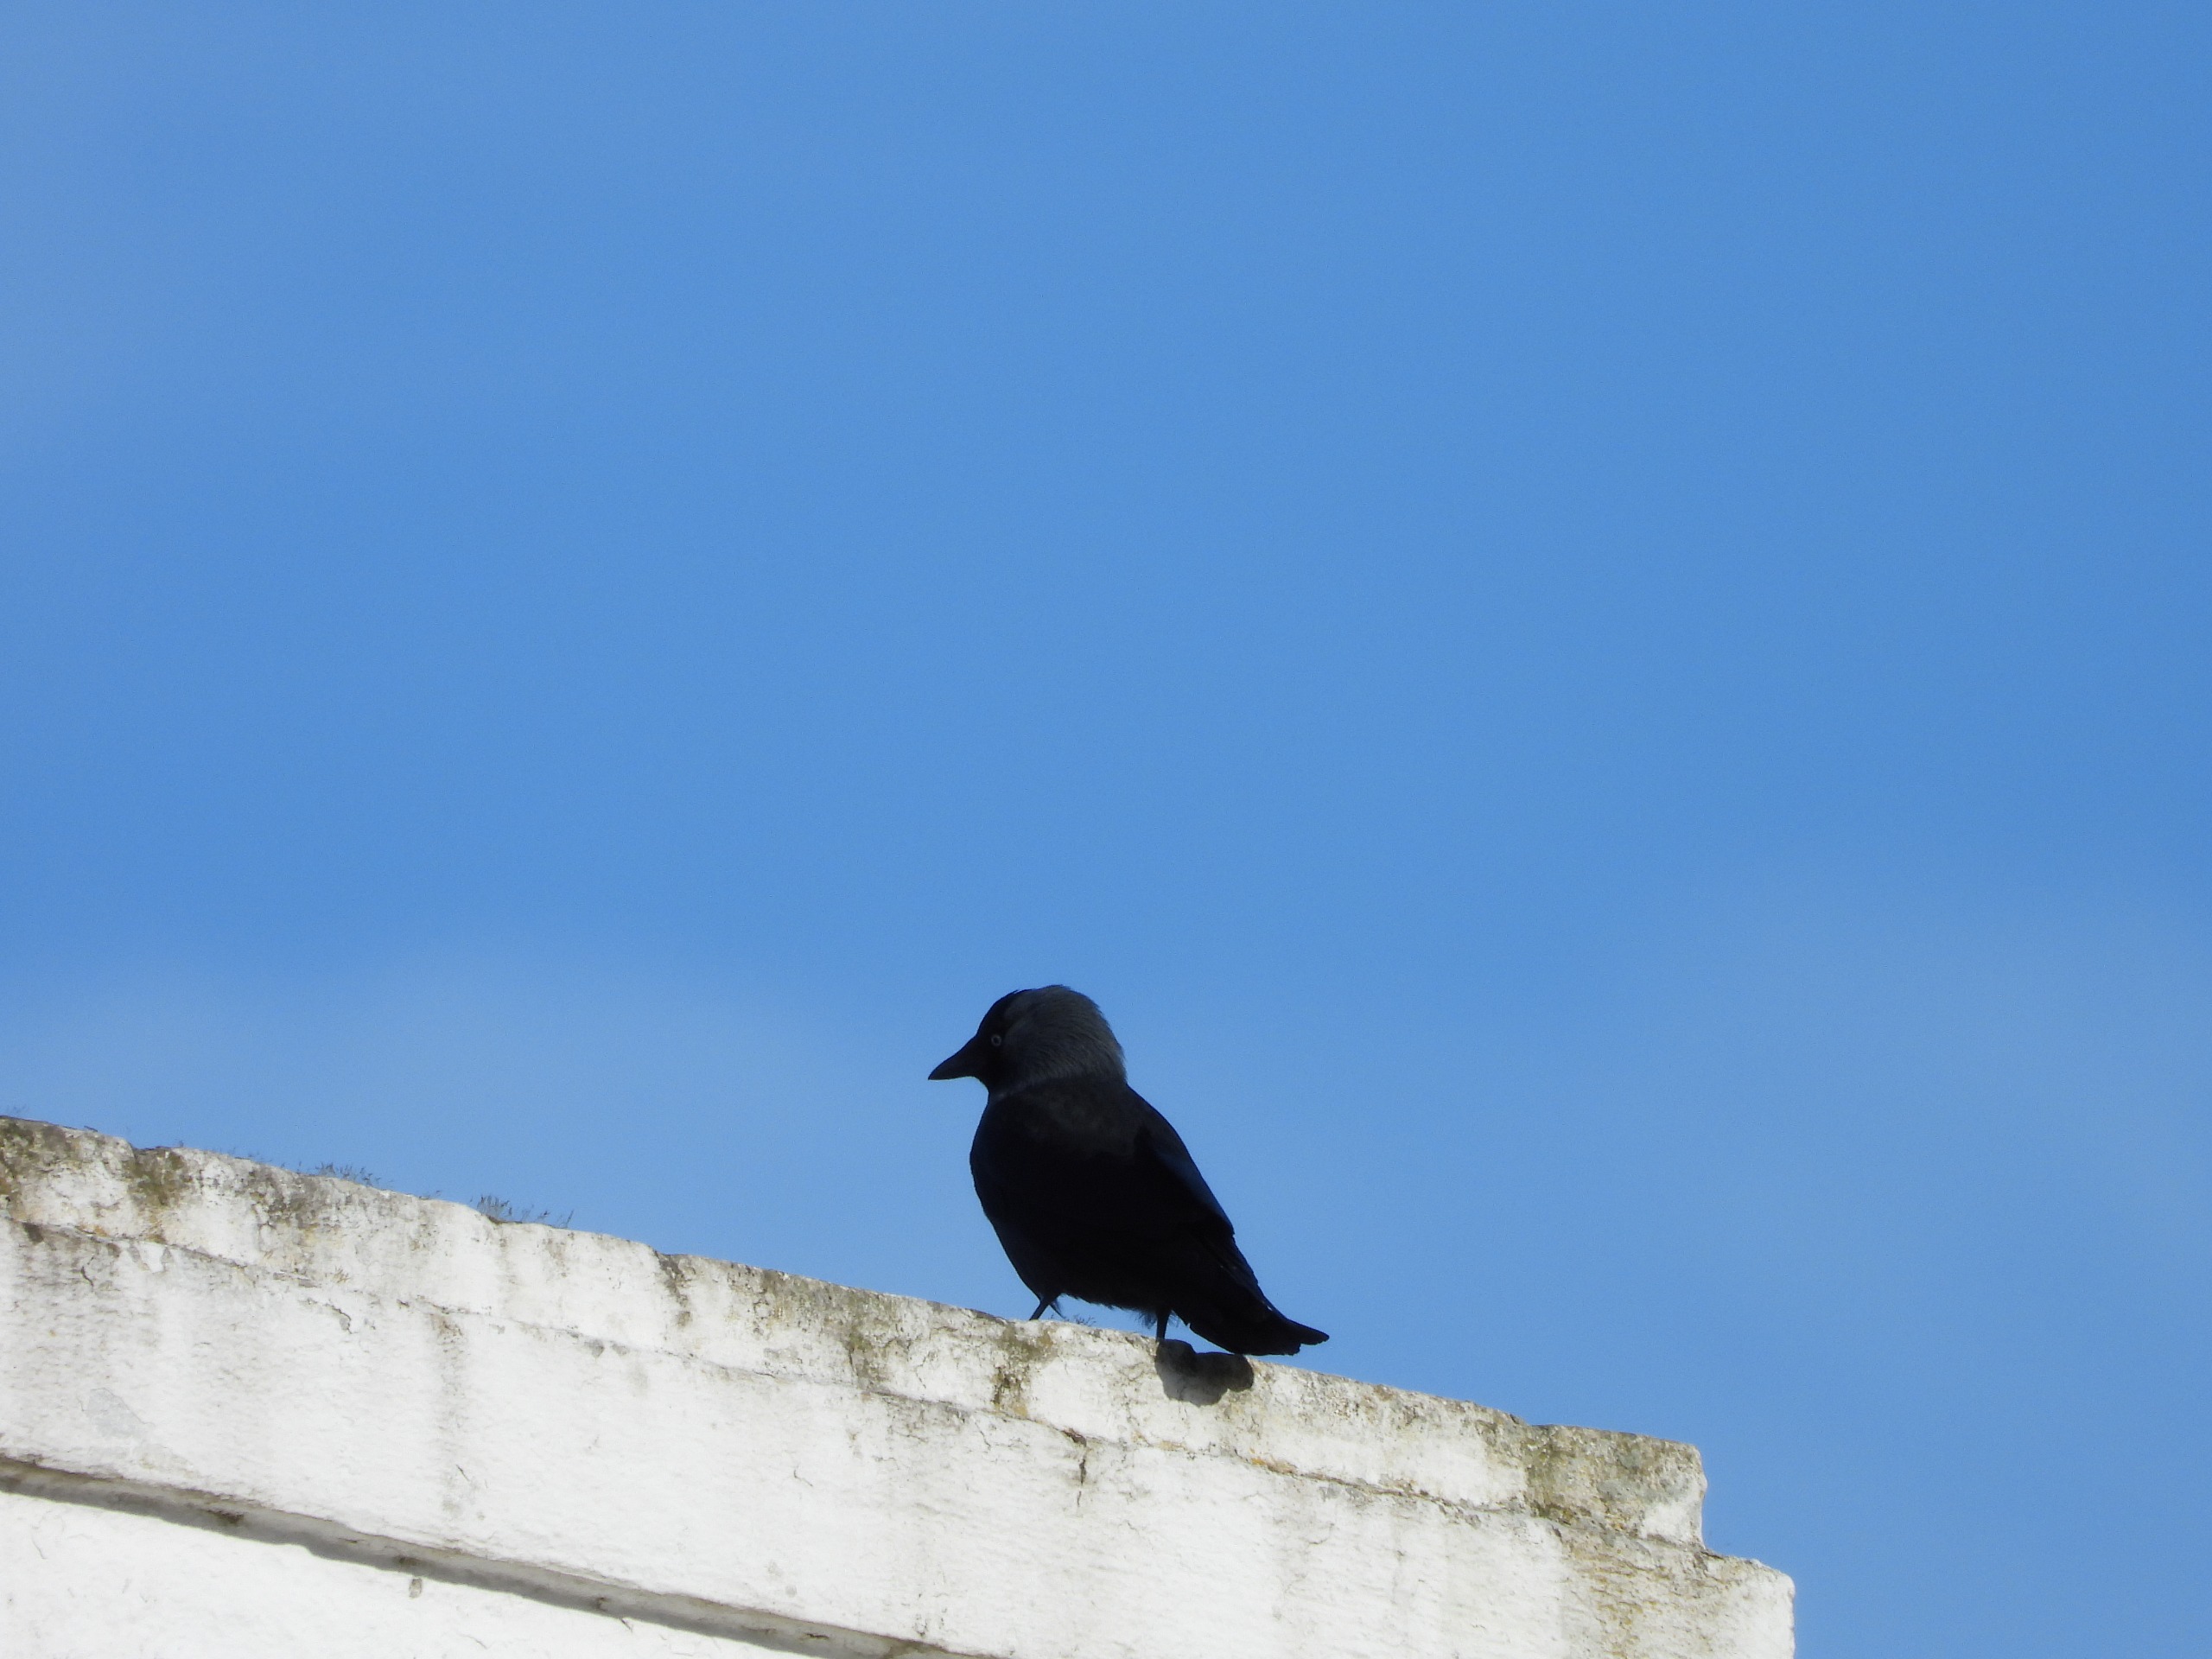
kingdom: Animalia
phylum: Chordata
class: Aves
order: Passeriformes
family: Corvidae
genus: Coloeus
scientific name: Coloeus monedula
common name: Allike
